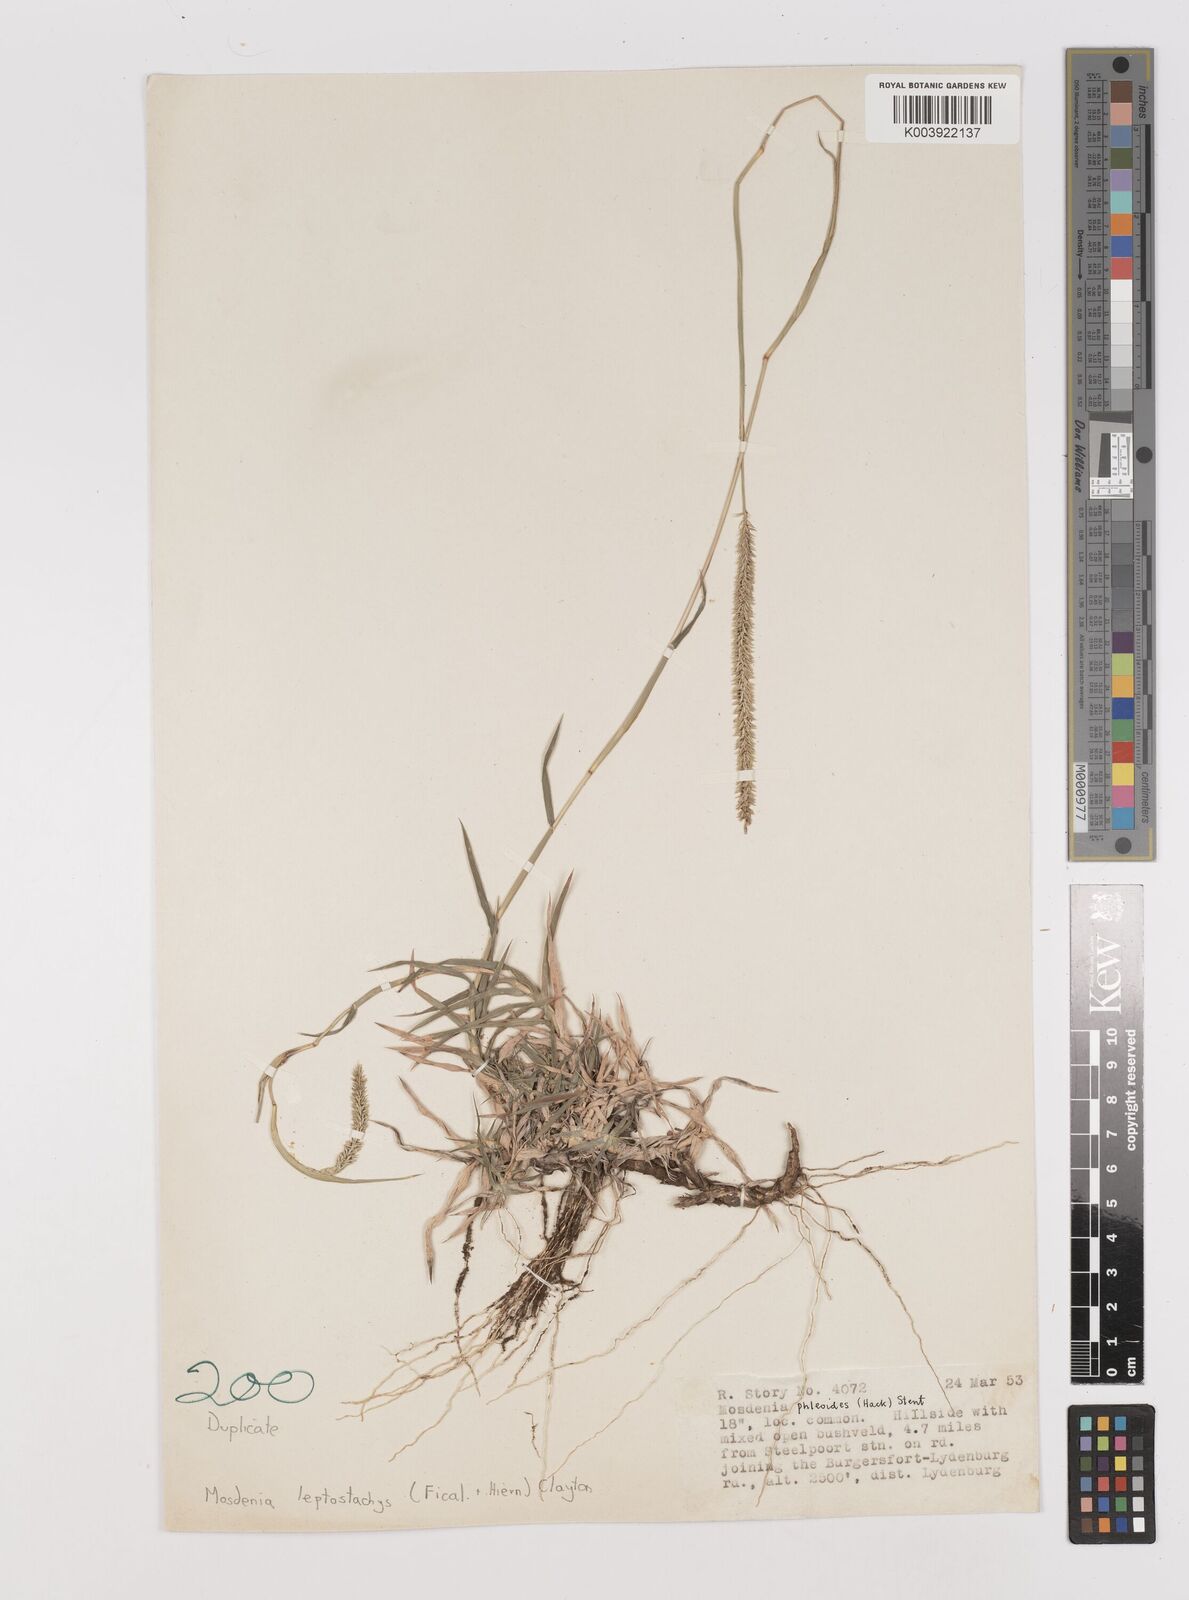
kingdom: Plantae
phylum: Tracheophyta
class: Liliopsida
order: Poales
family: Poaceae
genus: Mosdenia
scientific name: Mosdenia leptostachys
